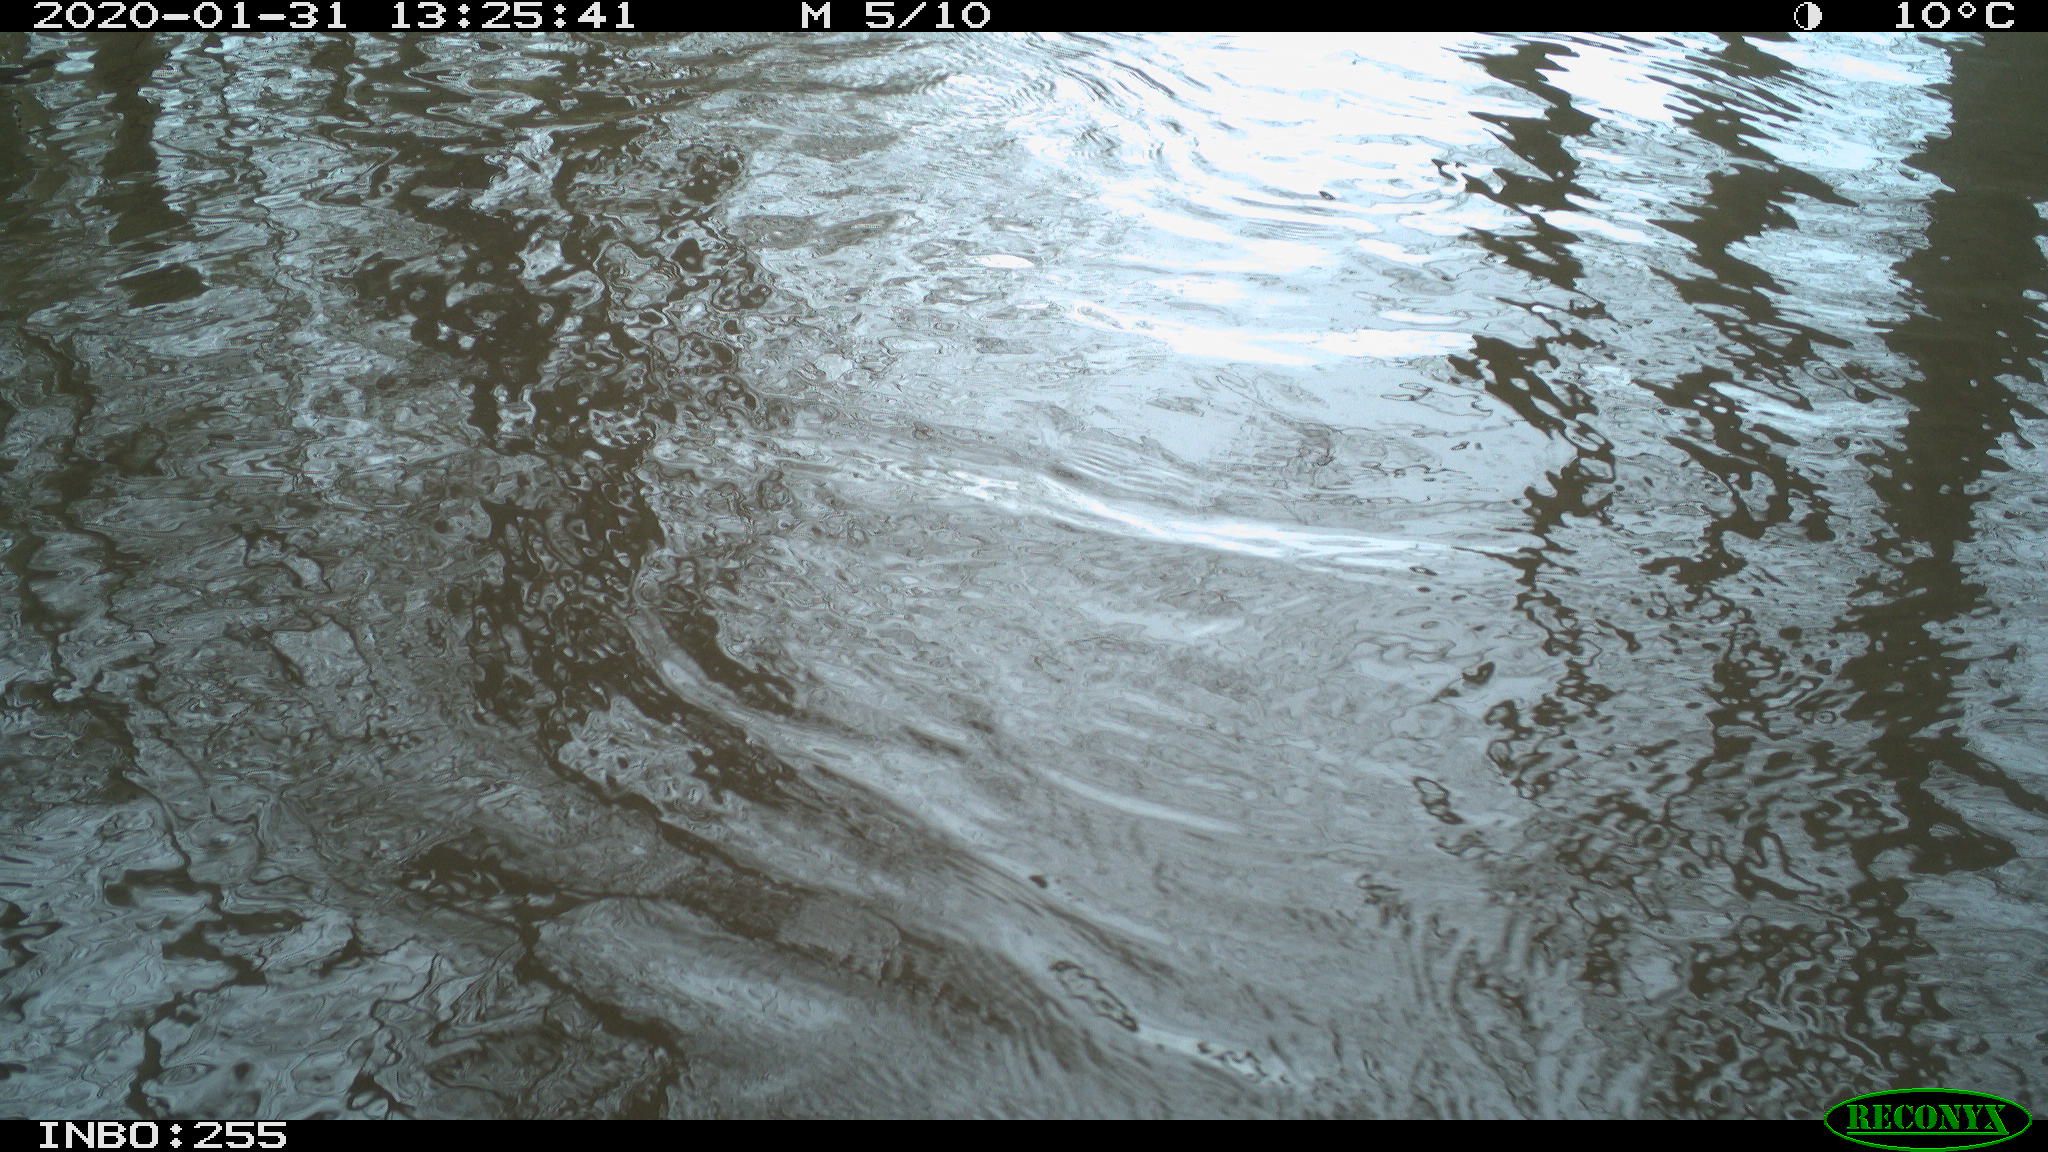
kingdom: Animalia
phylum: Chordata
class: Aves
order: Gruiformes
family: Rallidae
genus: Fulica
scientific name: Fulica atra
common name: Eurasian coot
